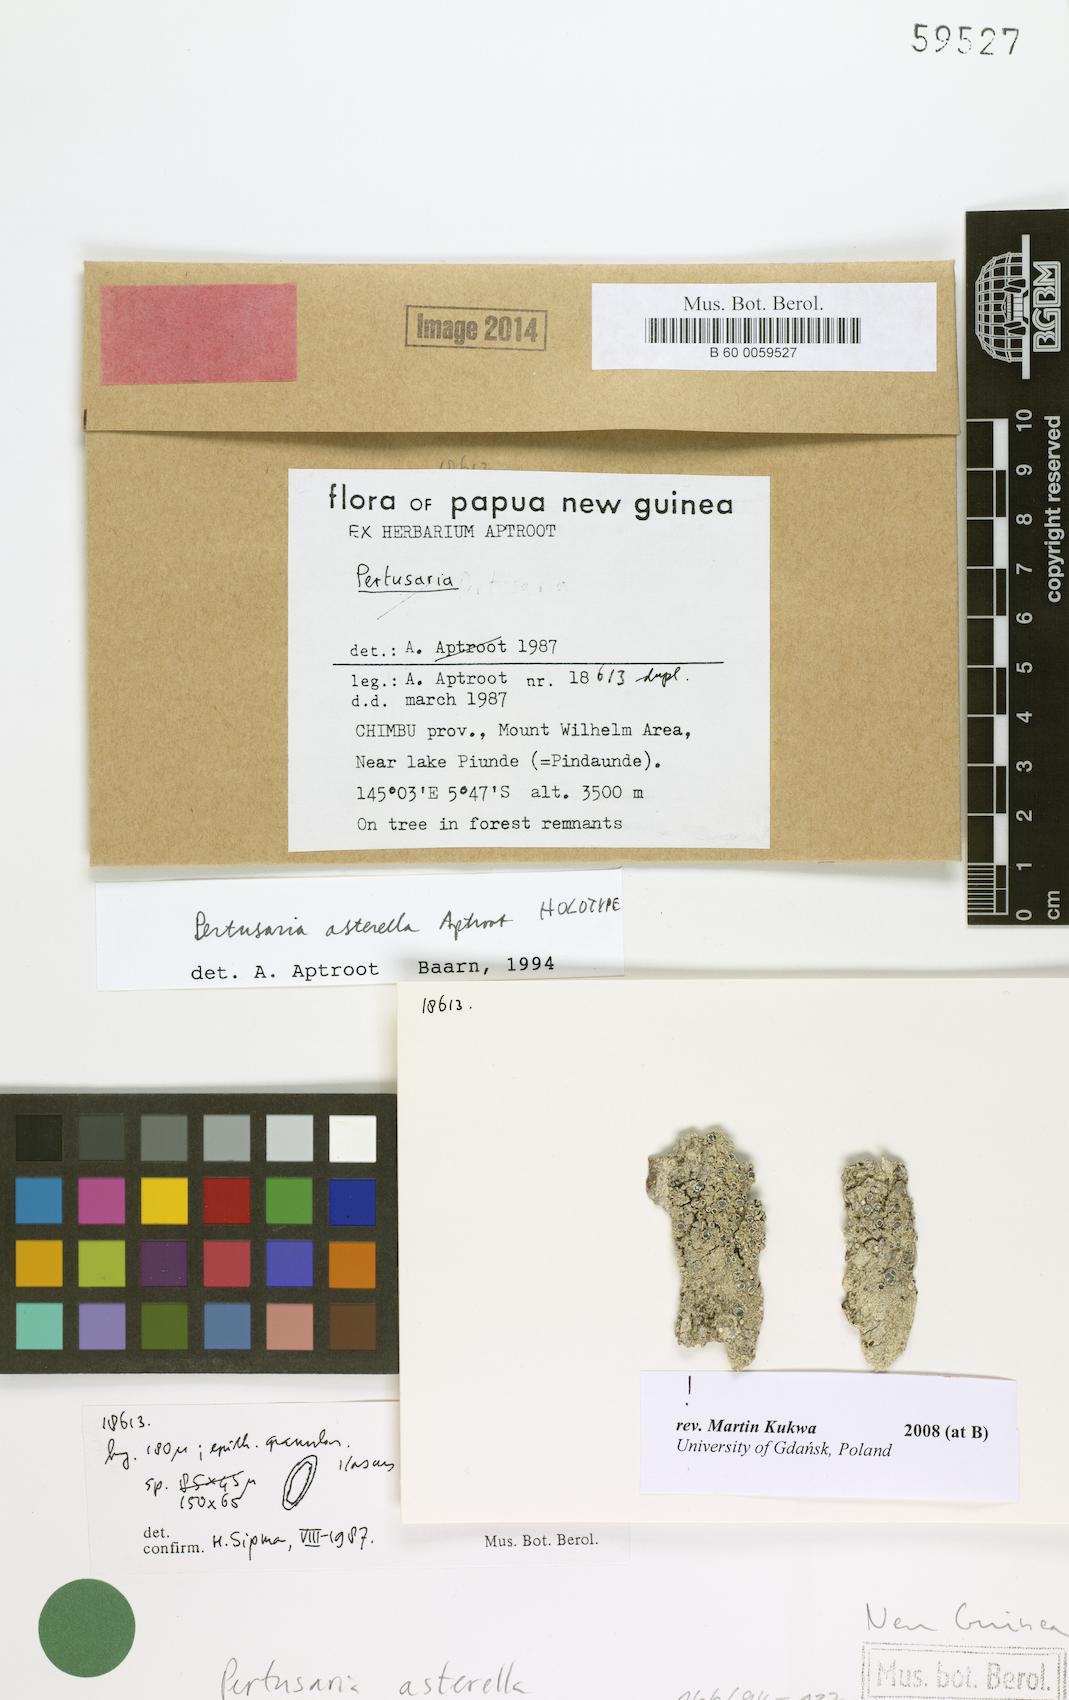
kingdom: Fungi
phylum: Ascomycota
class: Lecanoromycetes
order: Pertusariales
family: Pertusariaceae
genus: Pertusaria
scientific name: Pertusaria
